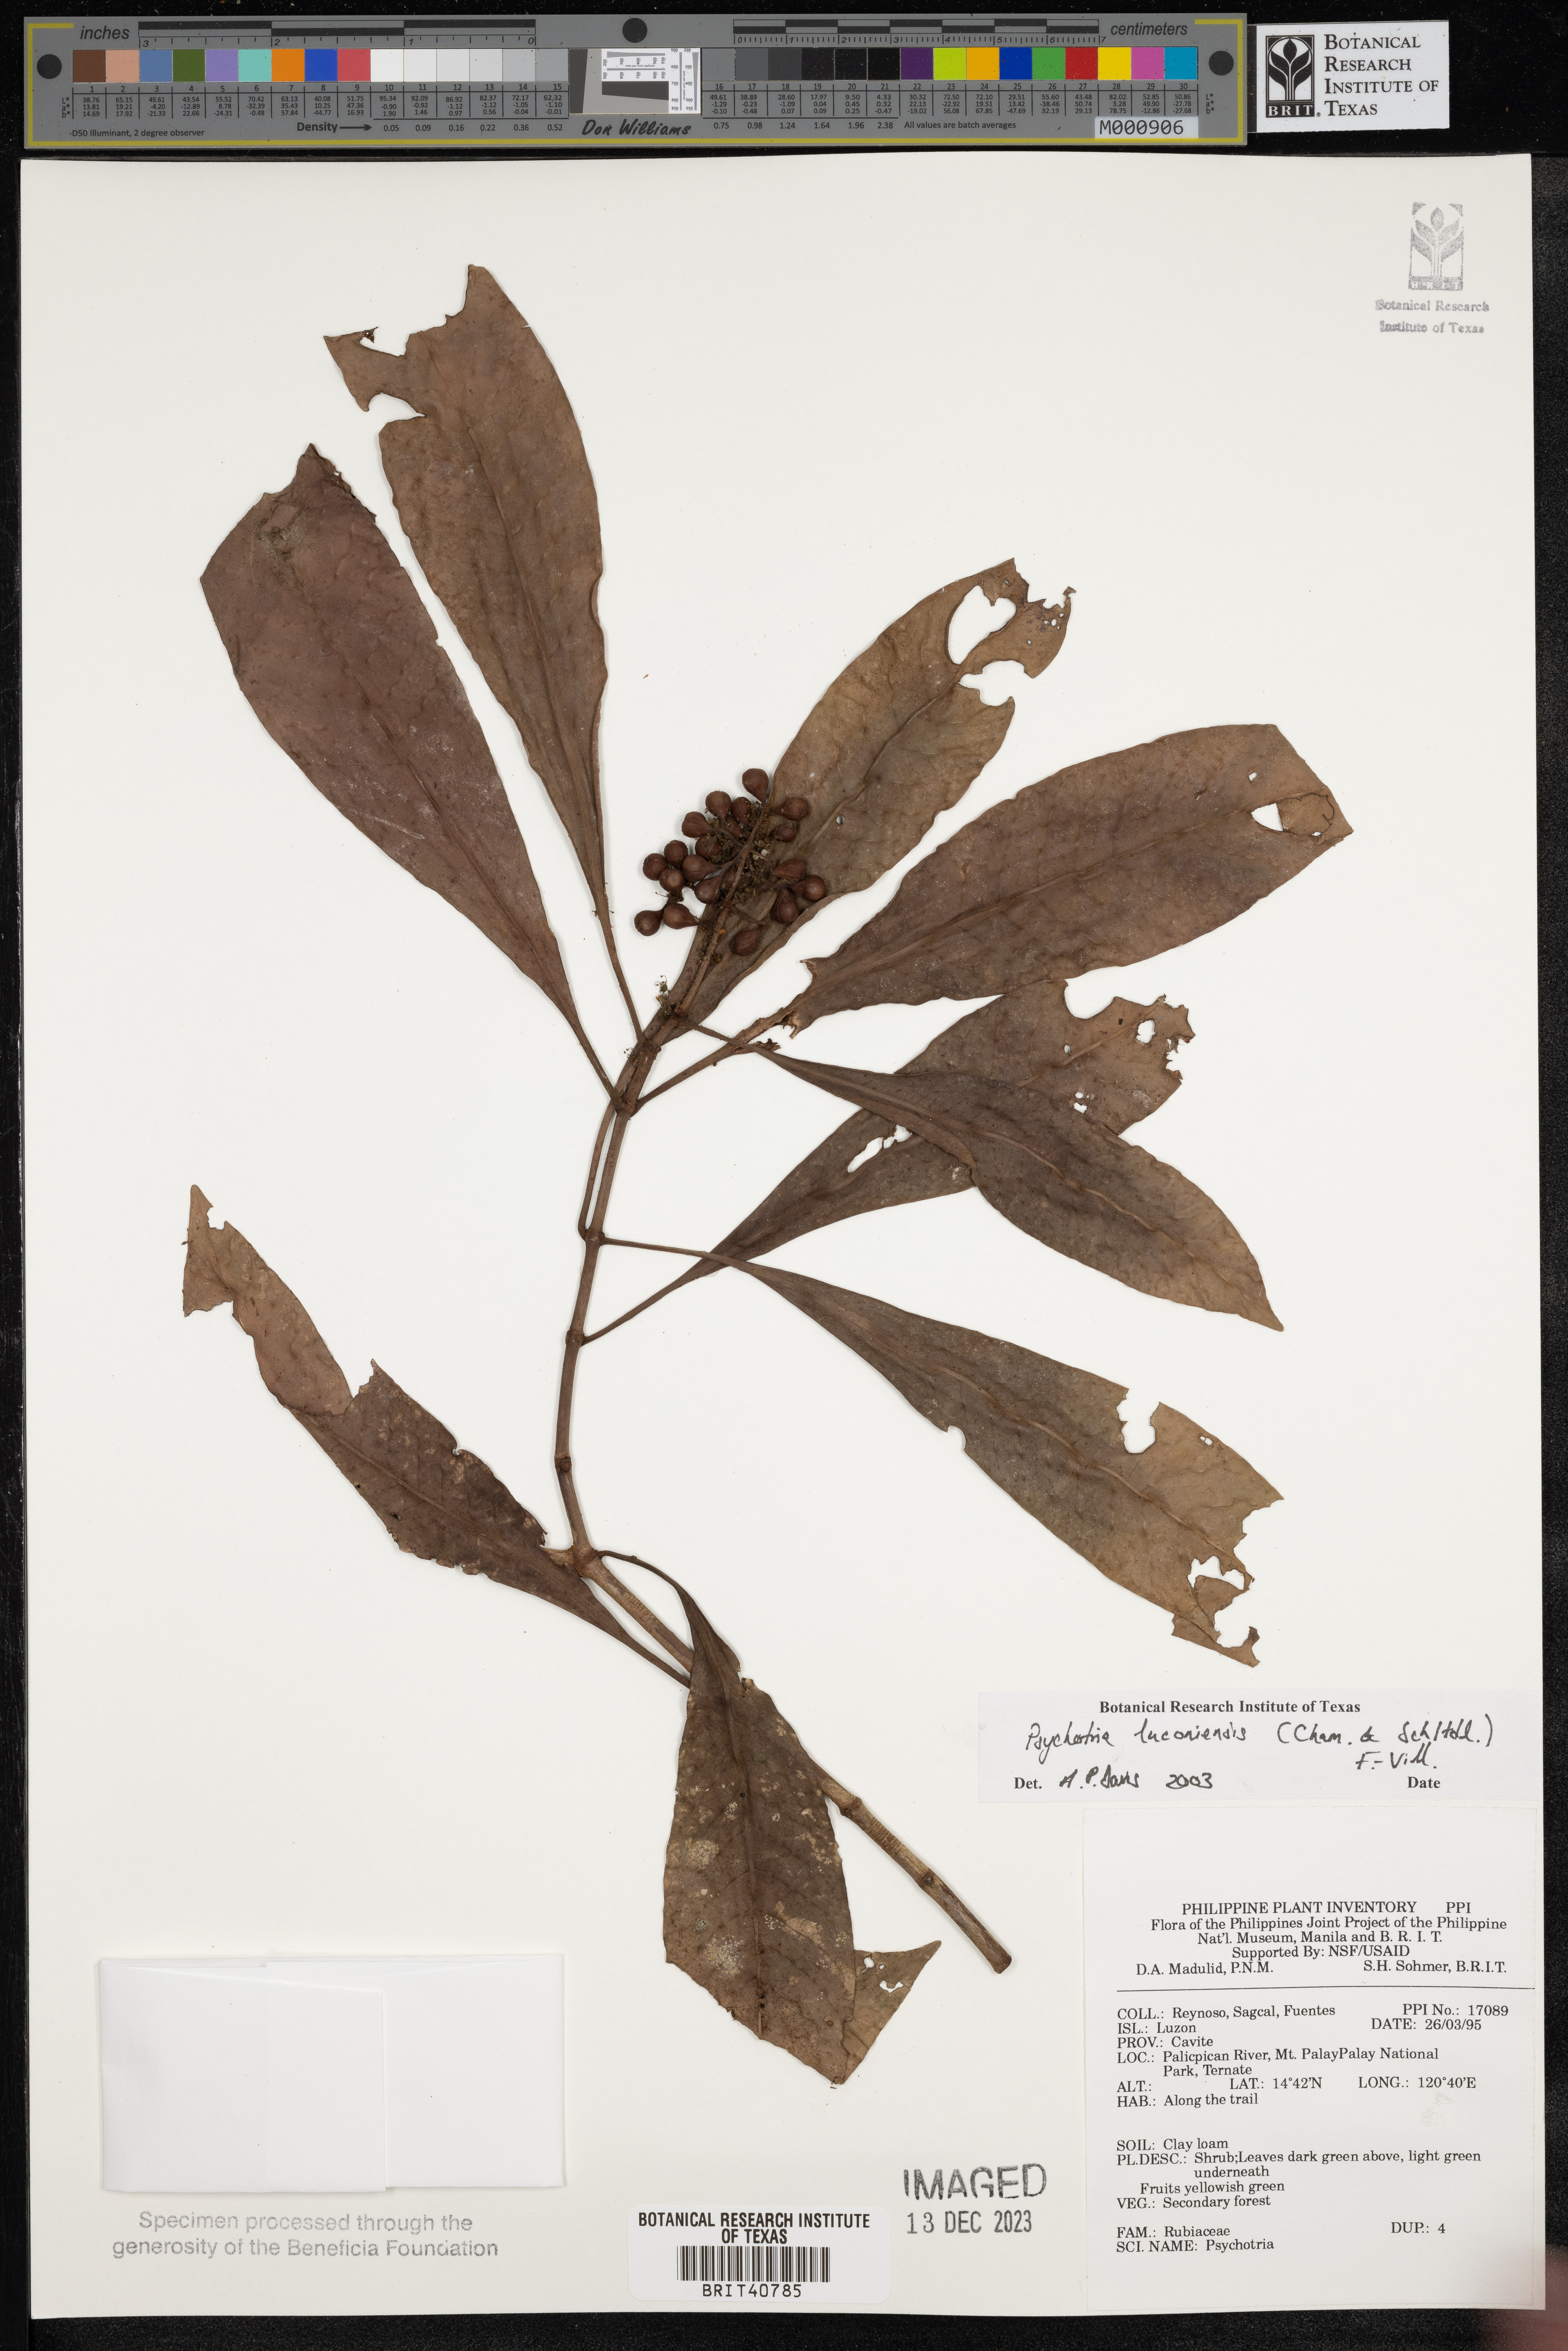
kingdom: Plantae
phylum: Tracheophyta
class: Magnoliopsida
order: Gentianales
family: Rubiaceae
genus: Psychotria
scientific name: Psychotria luzoniensis
